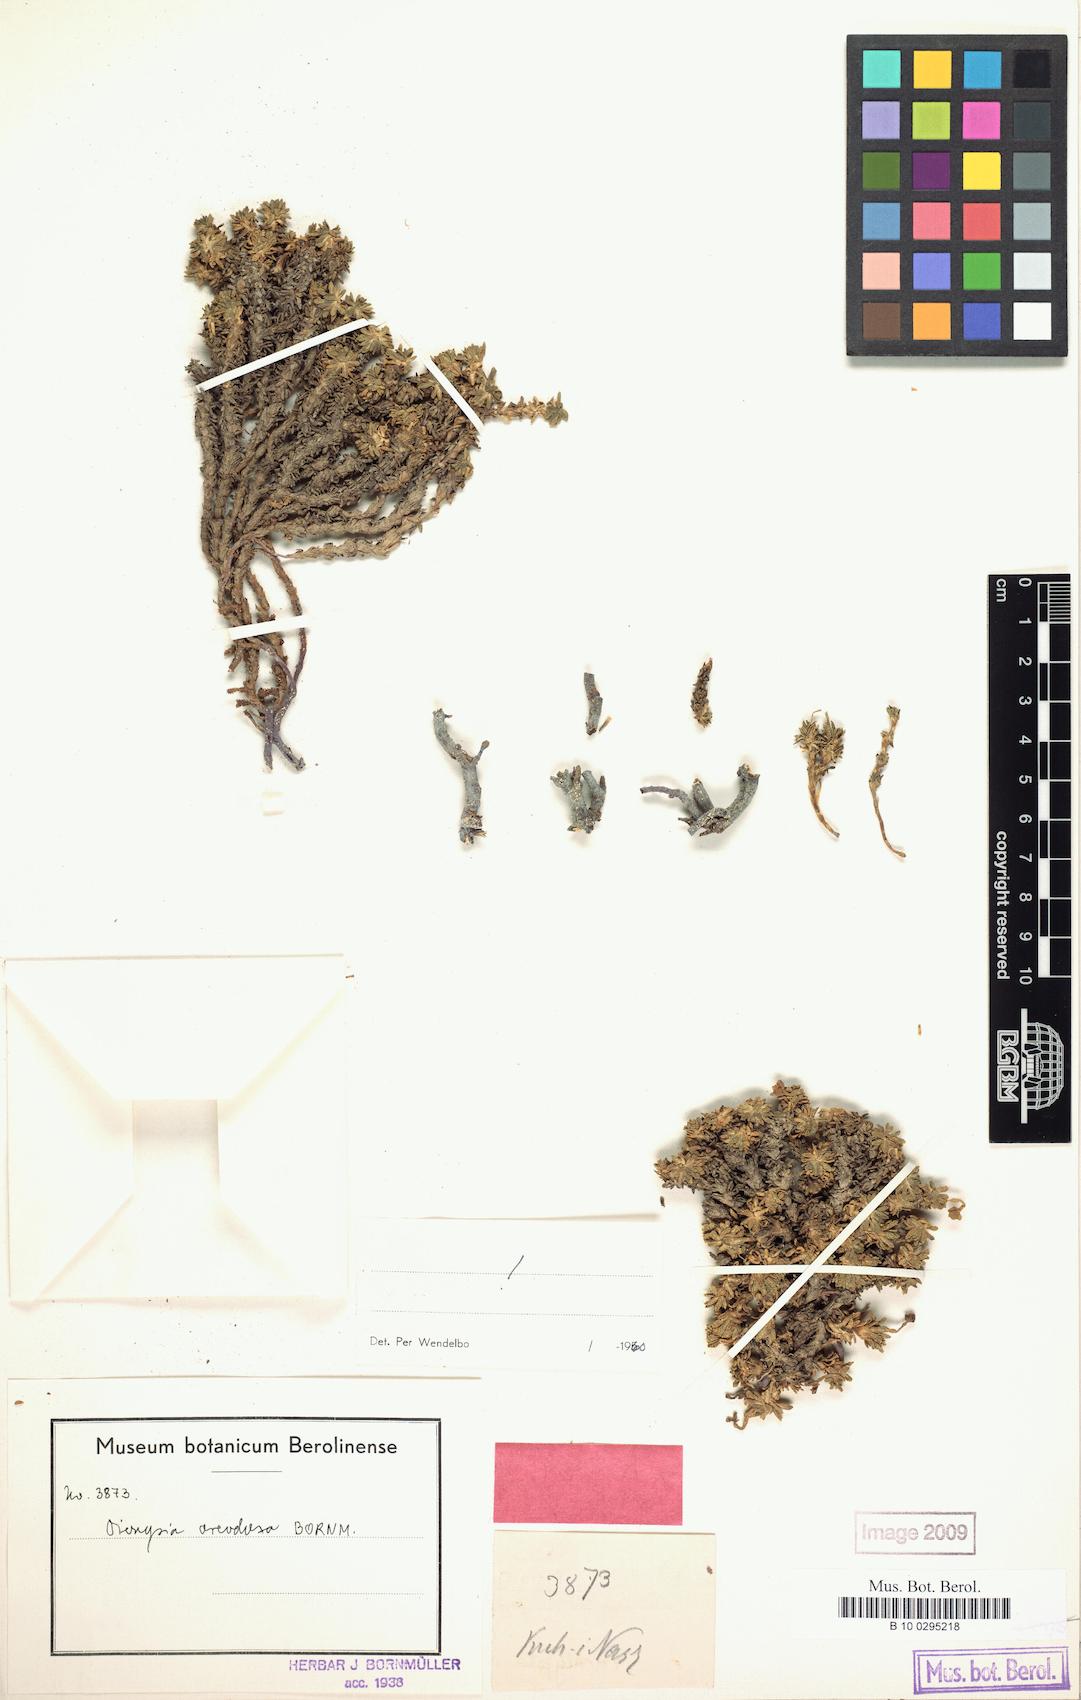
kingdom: Plantae
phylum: Tracheophyta
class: Magnoliopsida
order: Ericales
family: Primulaceae
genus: Dionysia
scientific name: Dionysia oreodoxa
